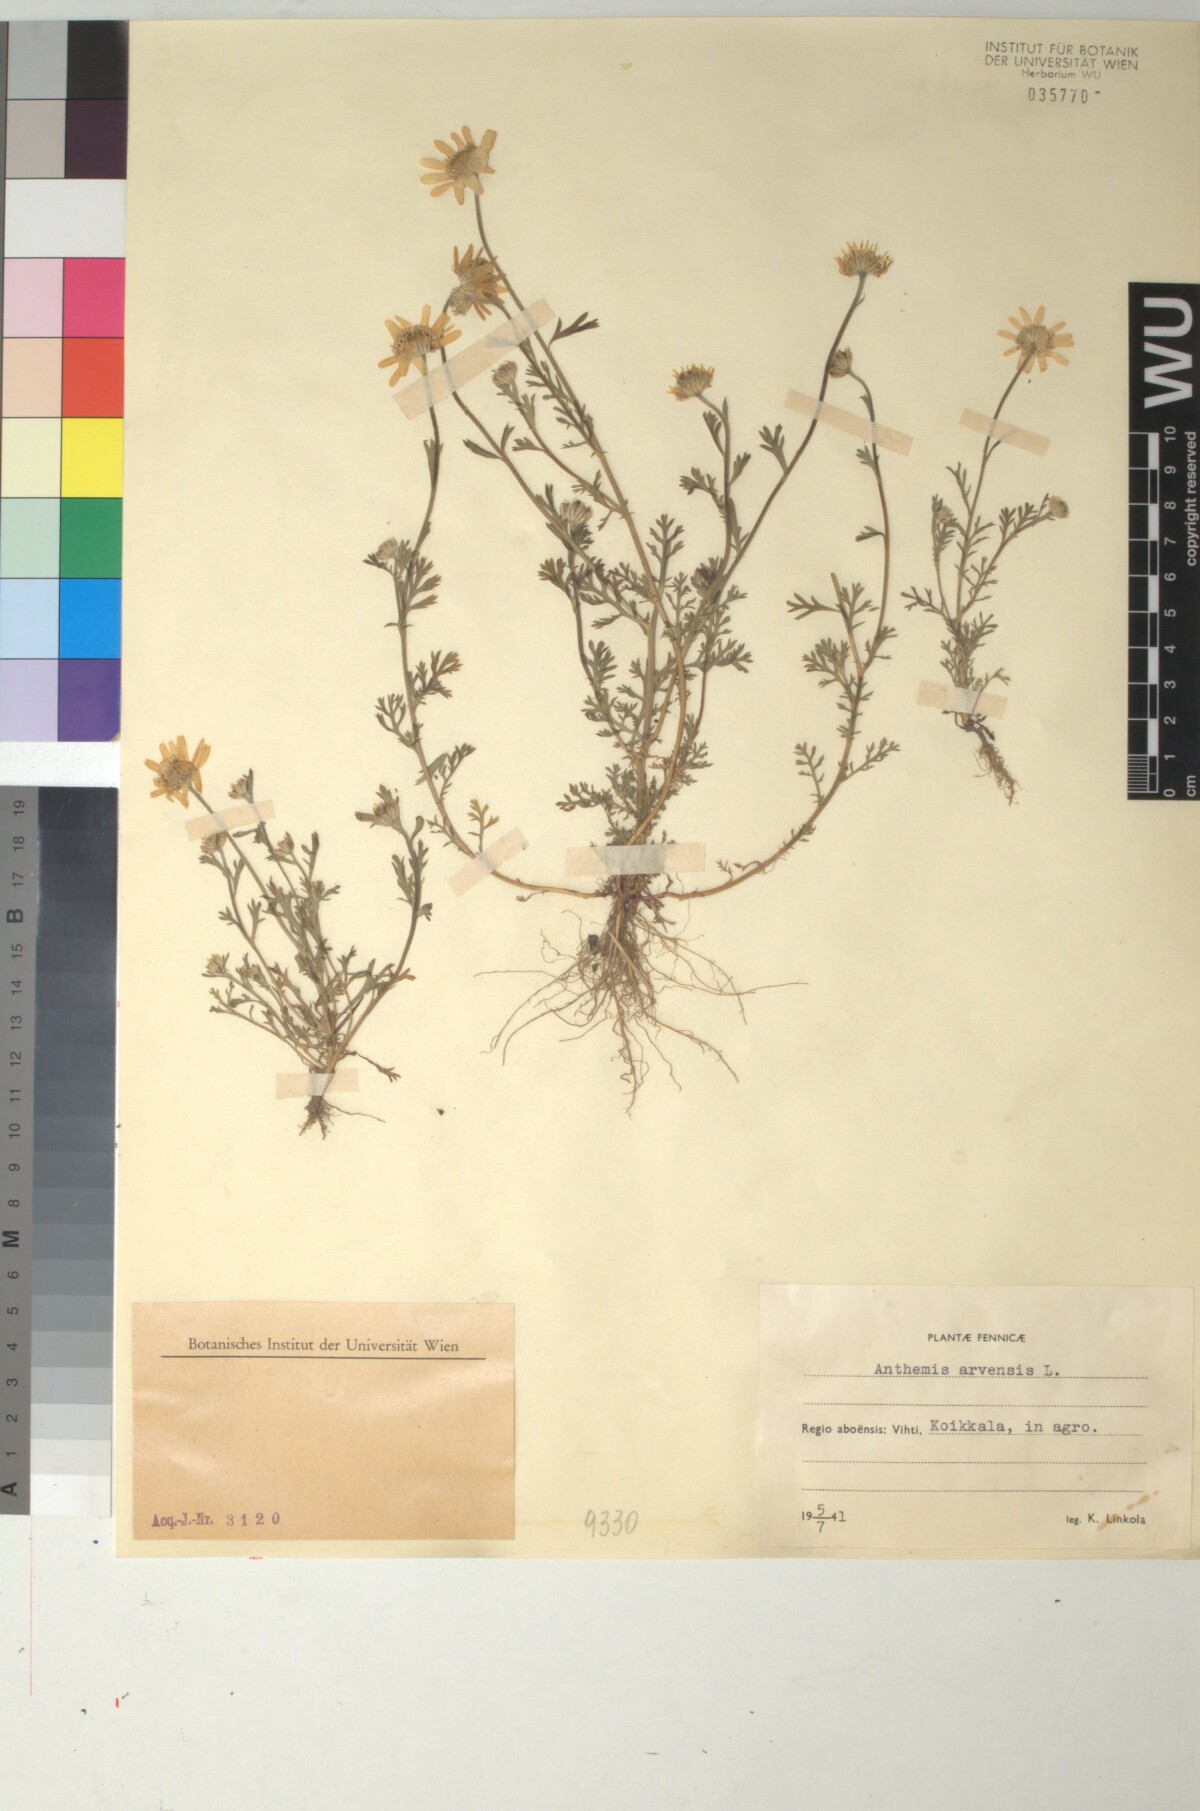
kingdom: Plantae
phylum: Tracheophyta
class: Magnoliopsida
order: Asterales
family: Asteraceae
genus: Anthemis
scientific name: Anthemis arvensis
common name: Corn chamomile
